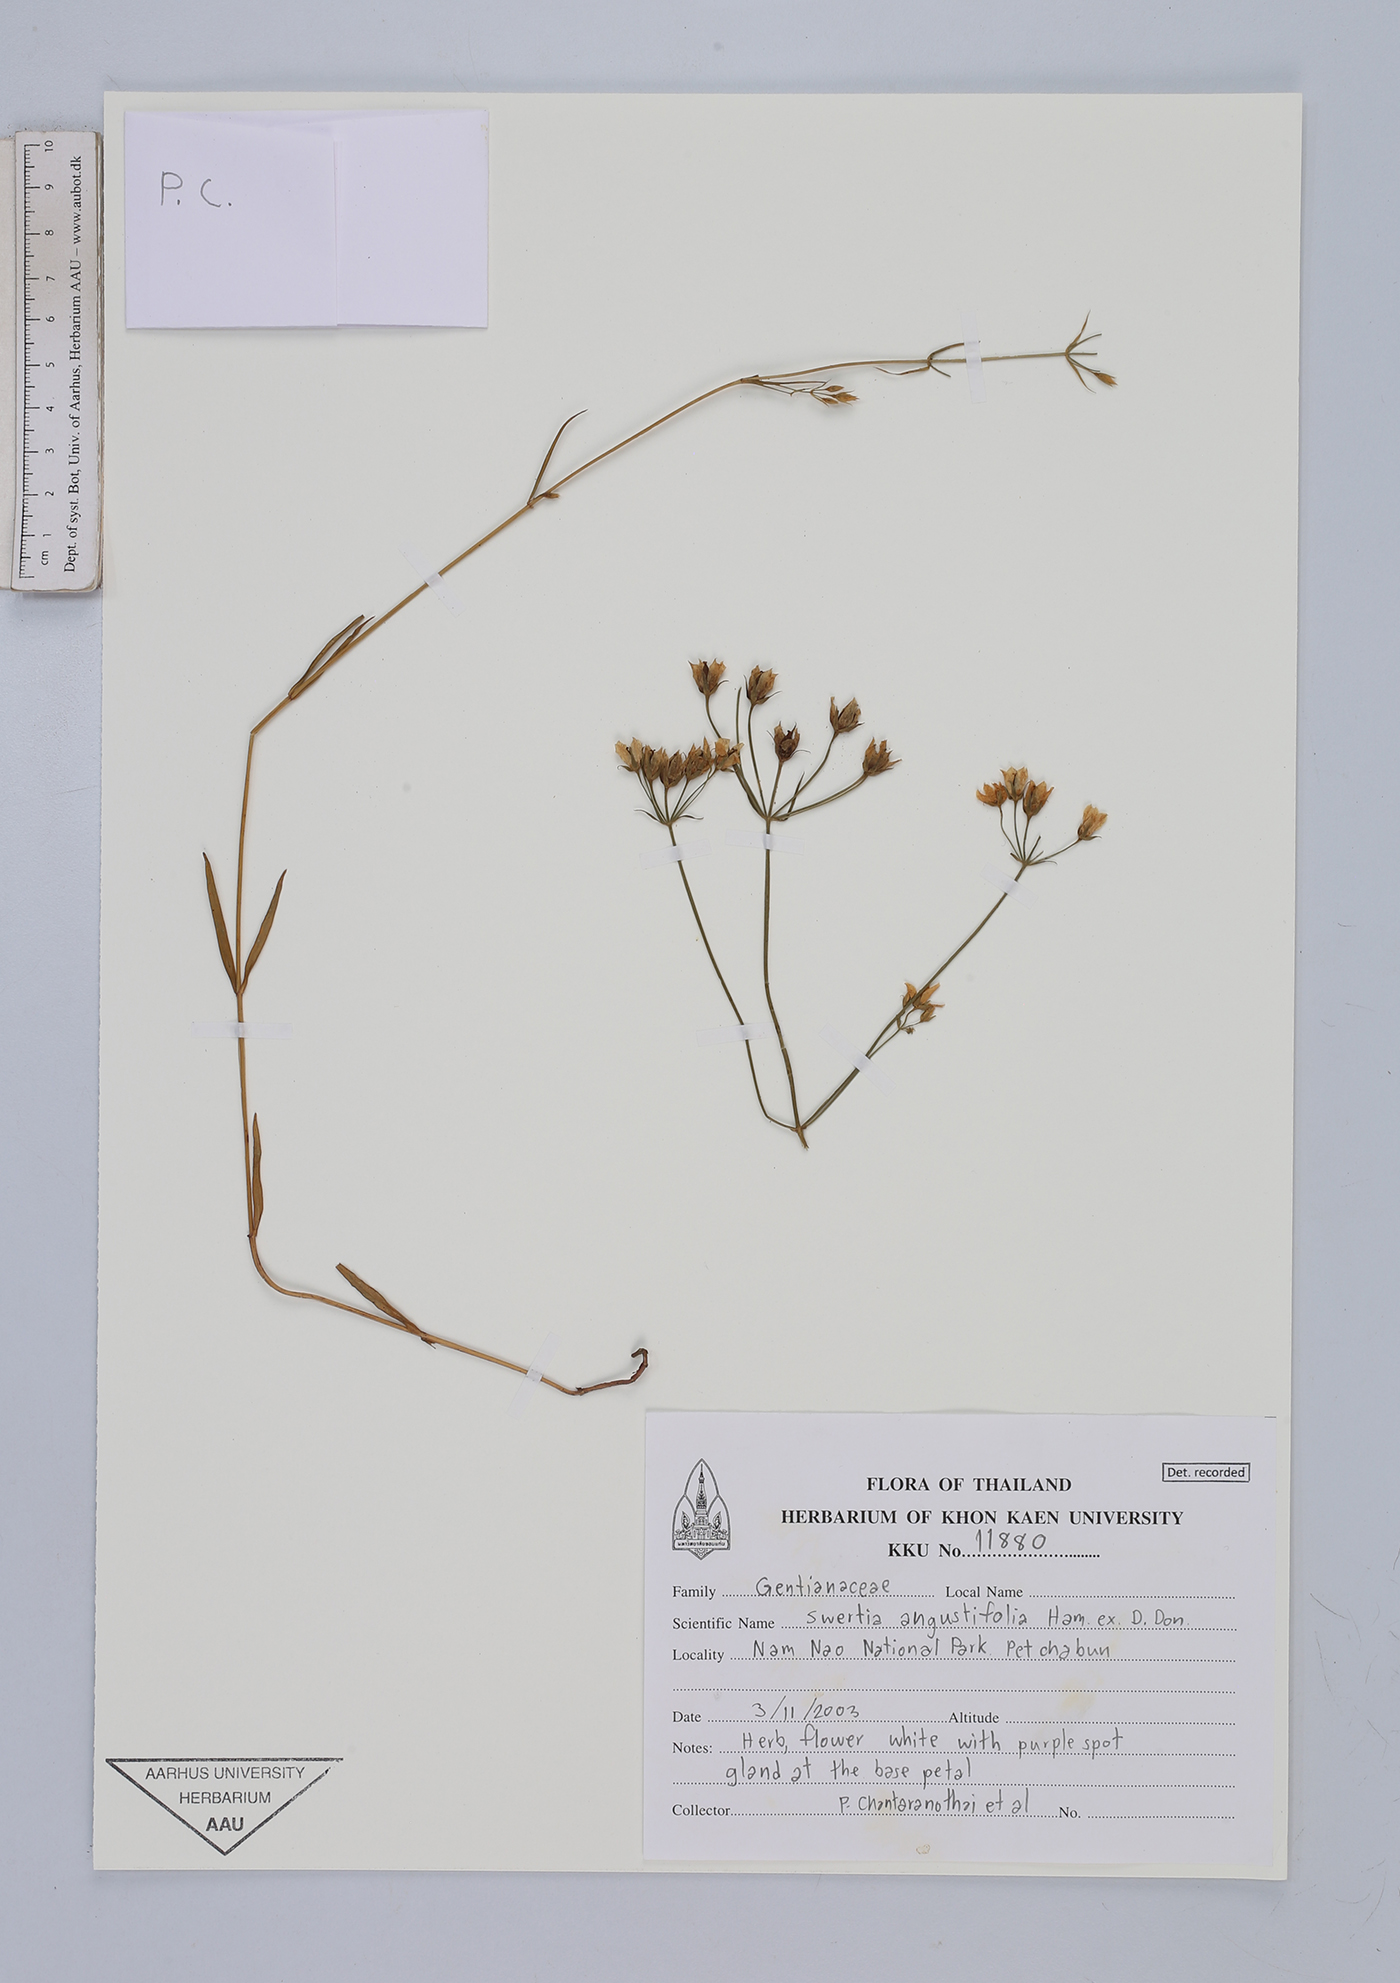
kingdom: Plantae
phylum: Tracheophyta
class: Magnoliopsida
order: Gentianales
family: Gentianaceae
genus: Swertia
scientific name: Swertia angustifolia
